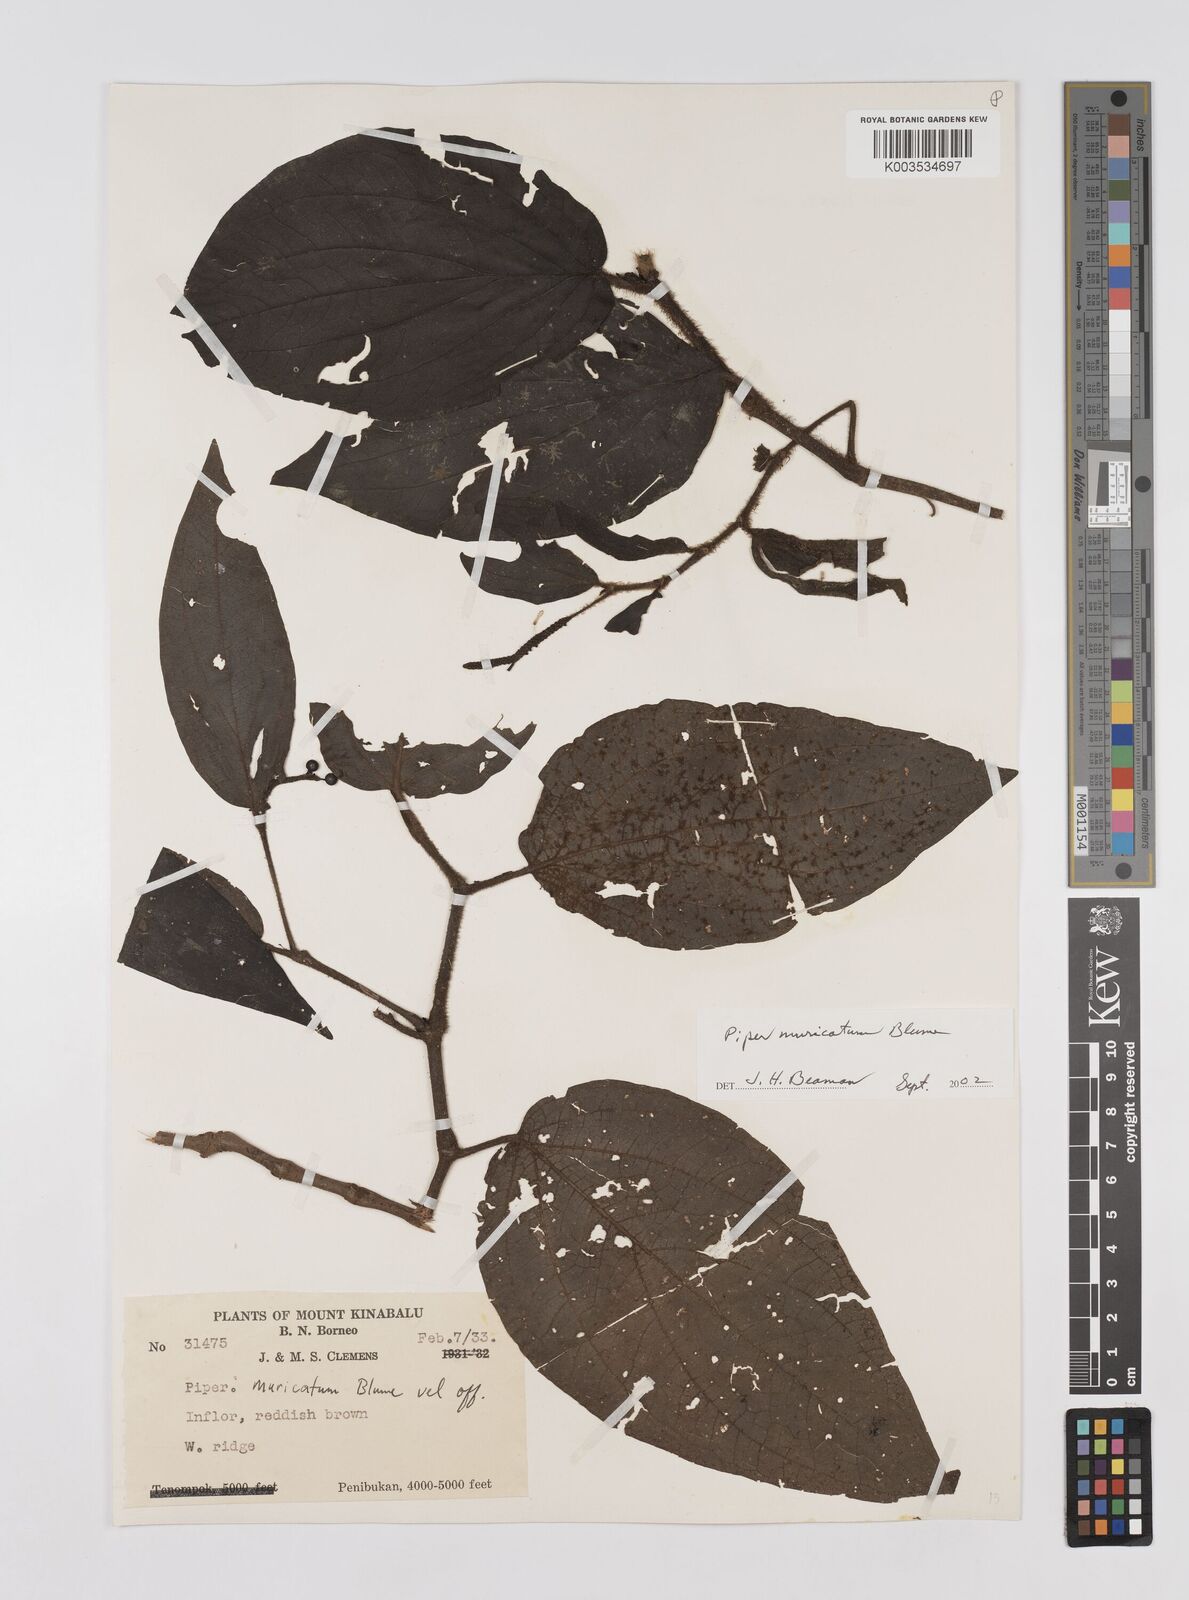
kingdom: Plantae
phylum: Tracheophyta
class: Magnoliopsida
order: Piperales
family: Piperaceae
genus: Piper
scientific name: Piper muricatum
